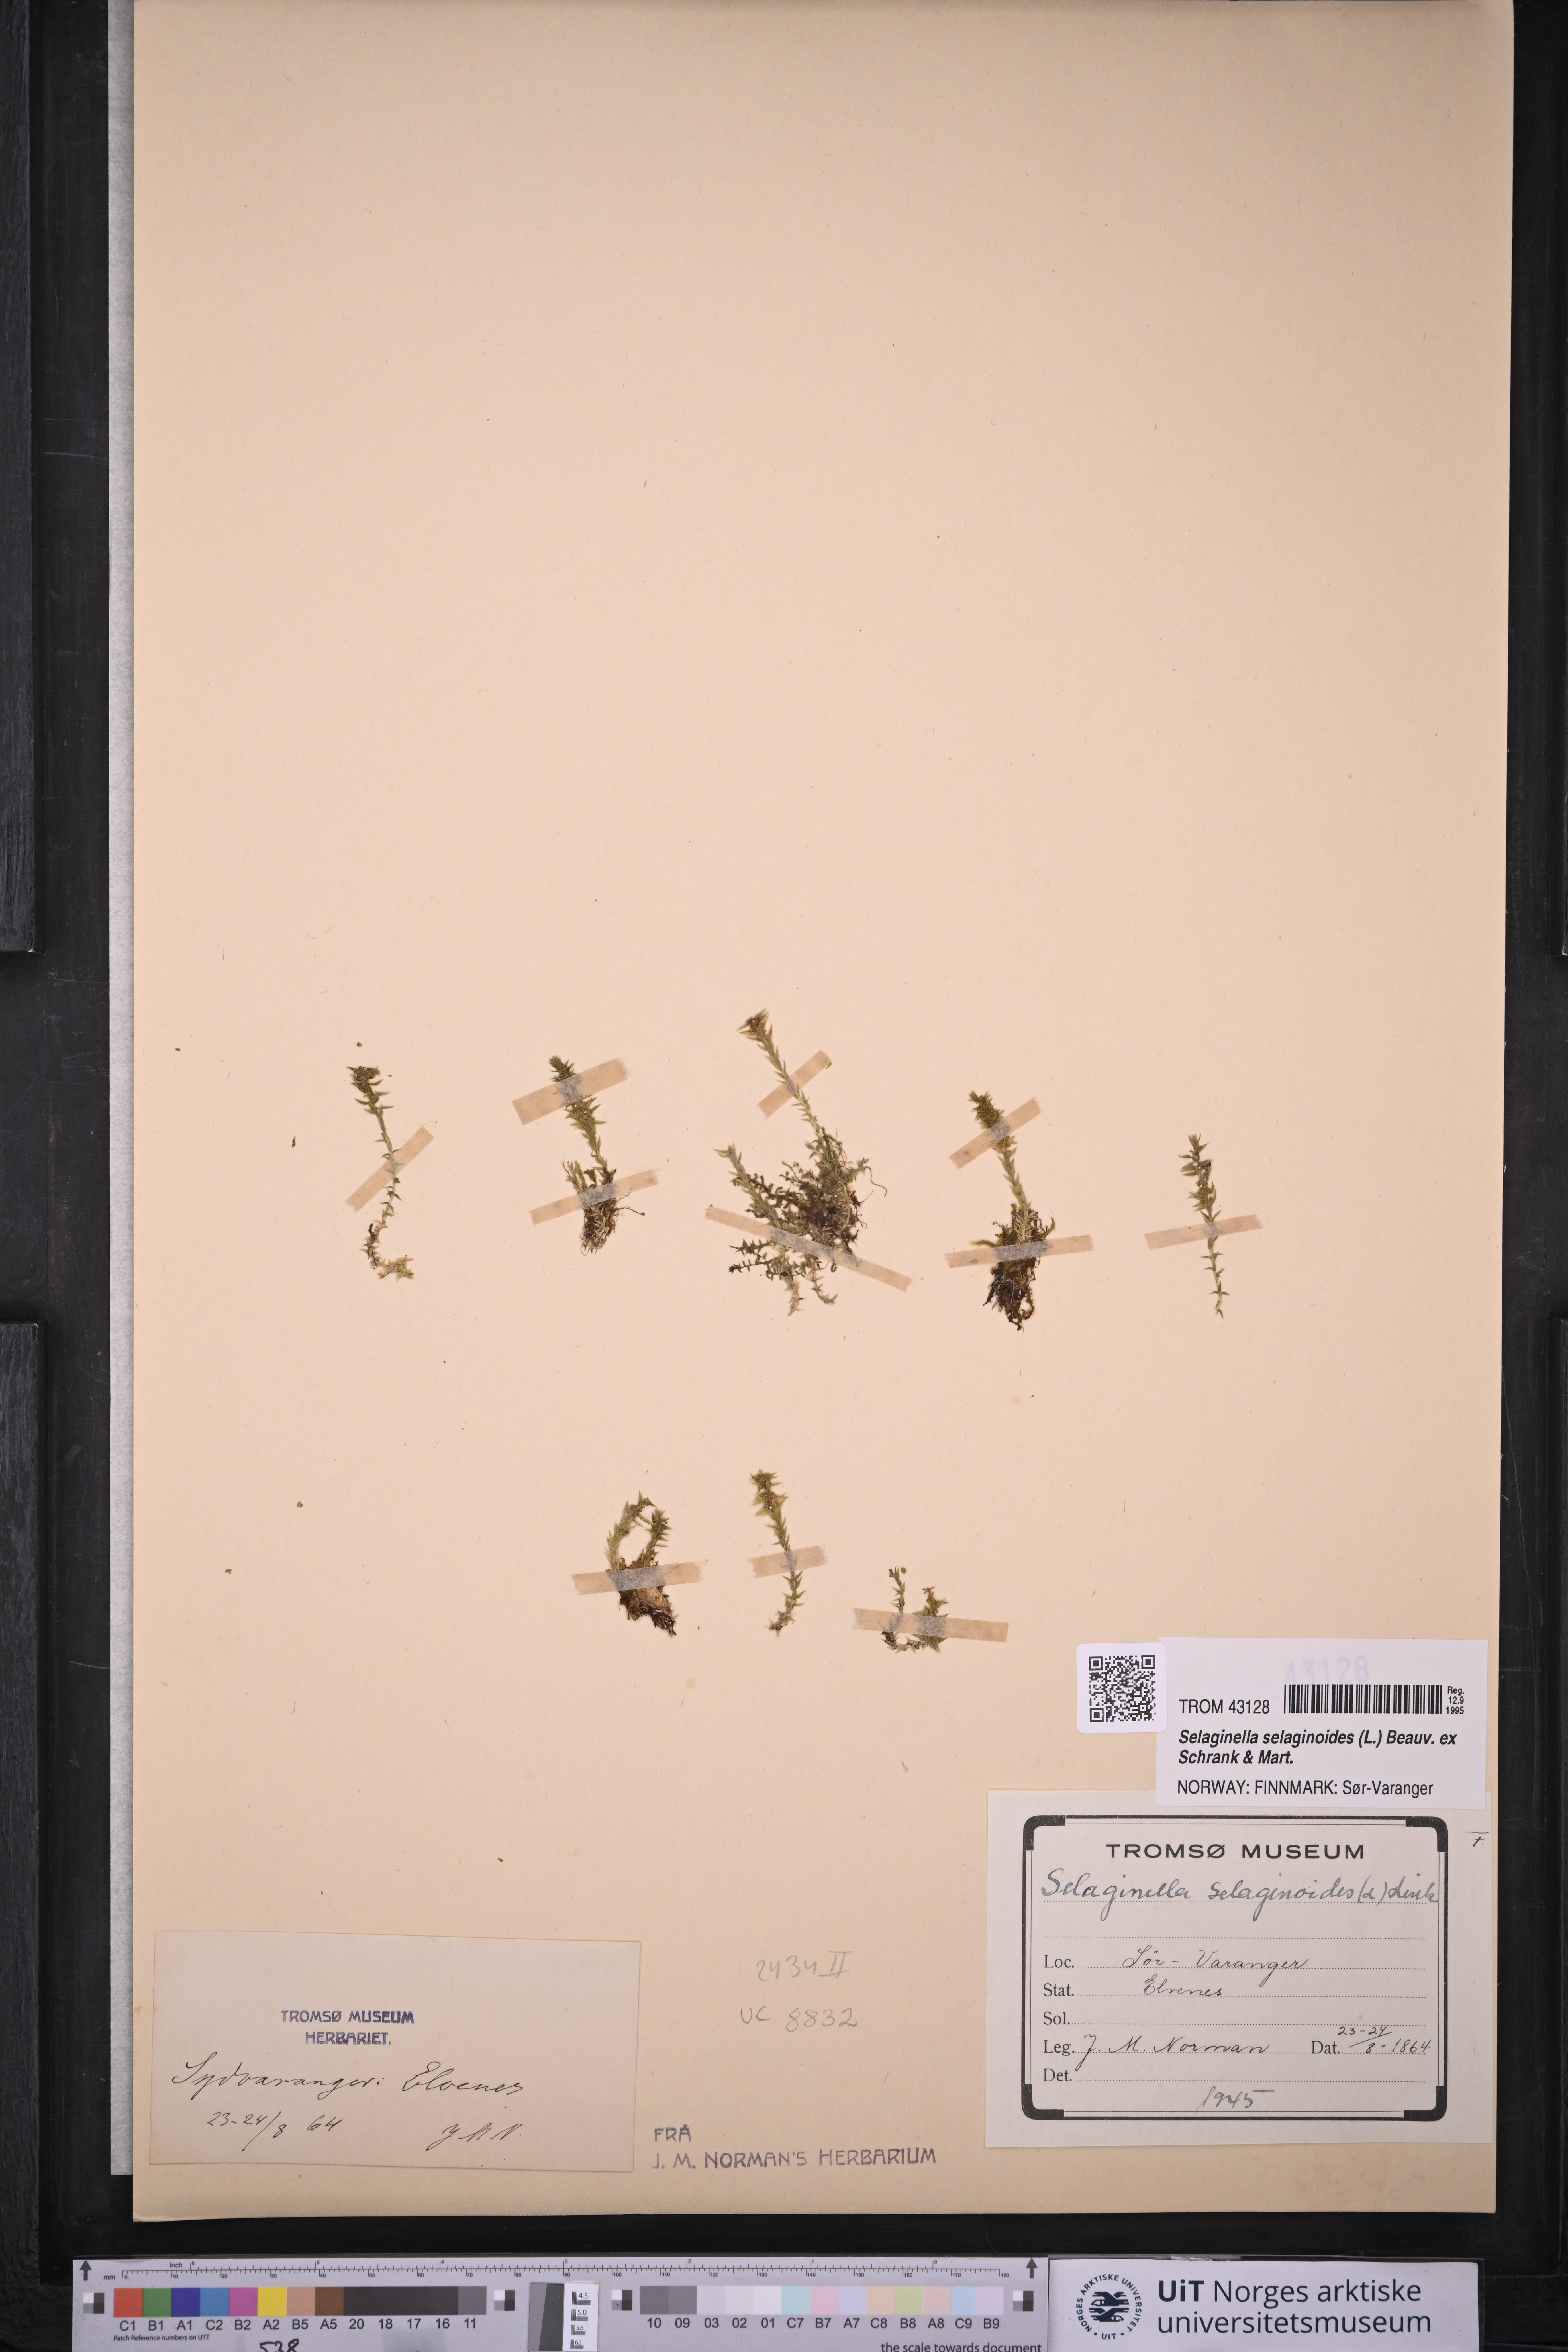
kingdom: Plantae
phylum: Tracheophyta
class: Lycopodiopsida
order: Selaginellales
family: Selaginellaceae
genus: Selaginella
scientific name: Selaginella selaginoides
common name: Prickly mountain-moss
